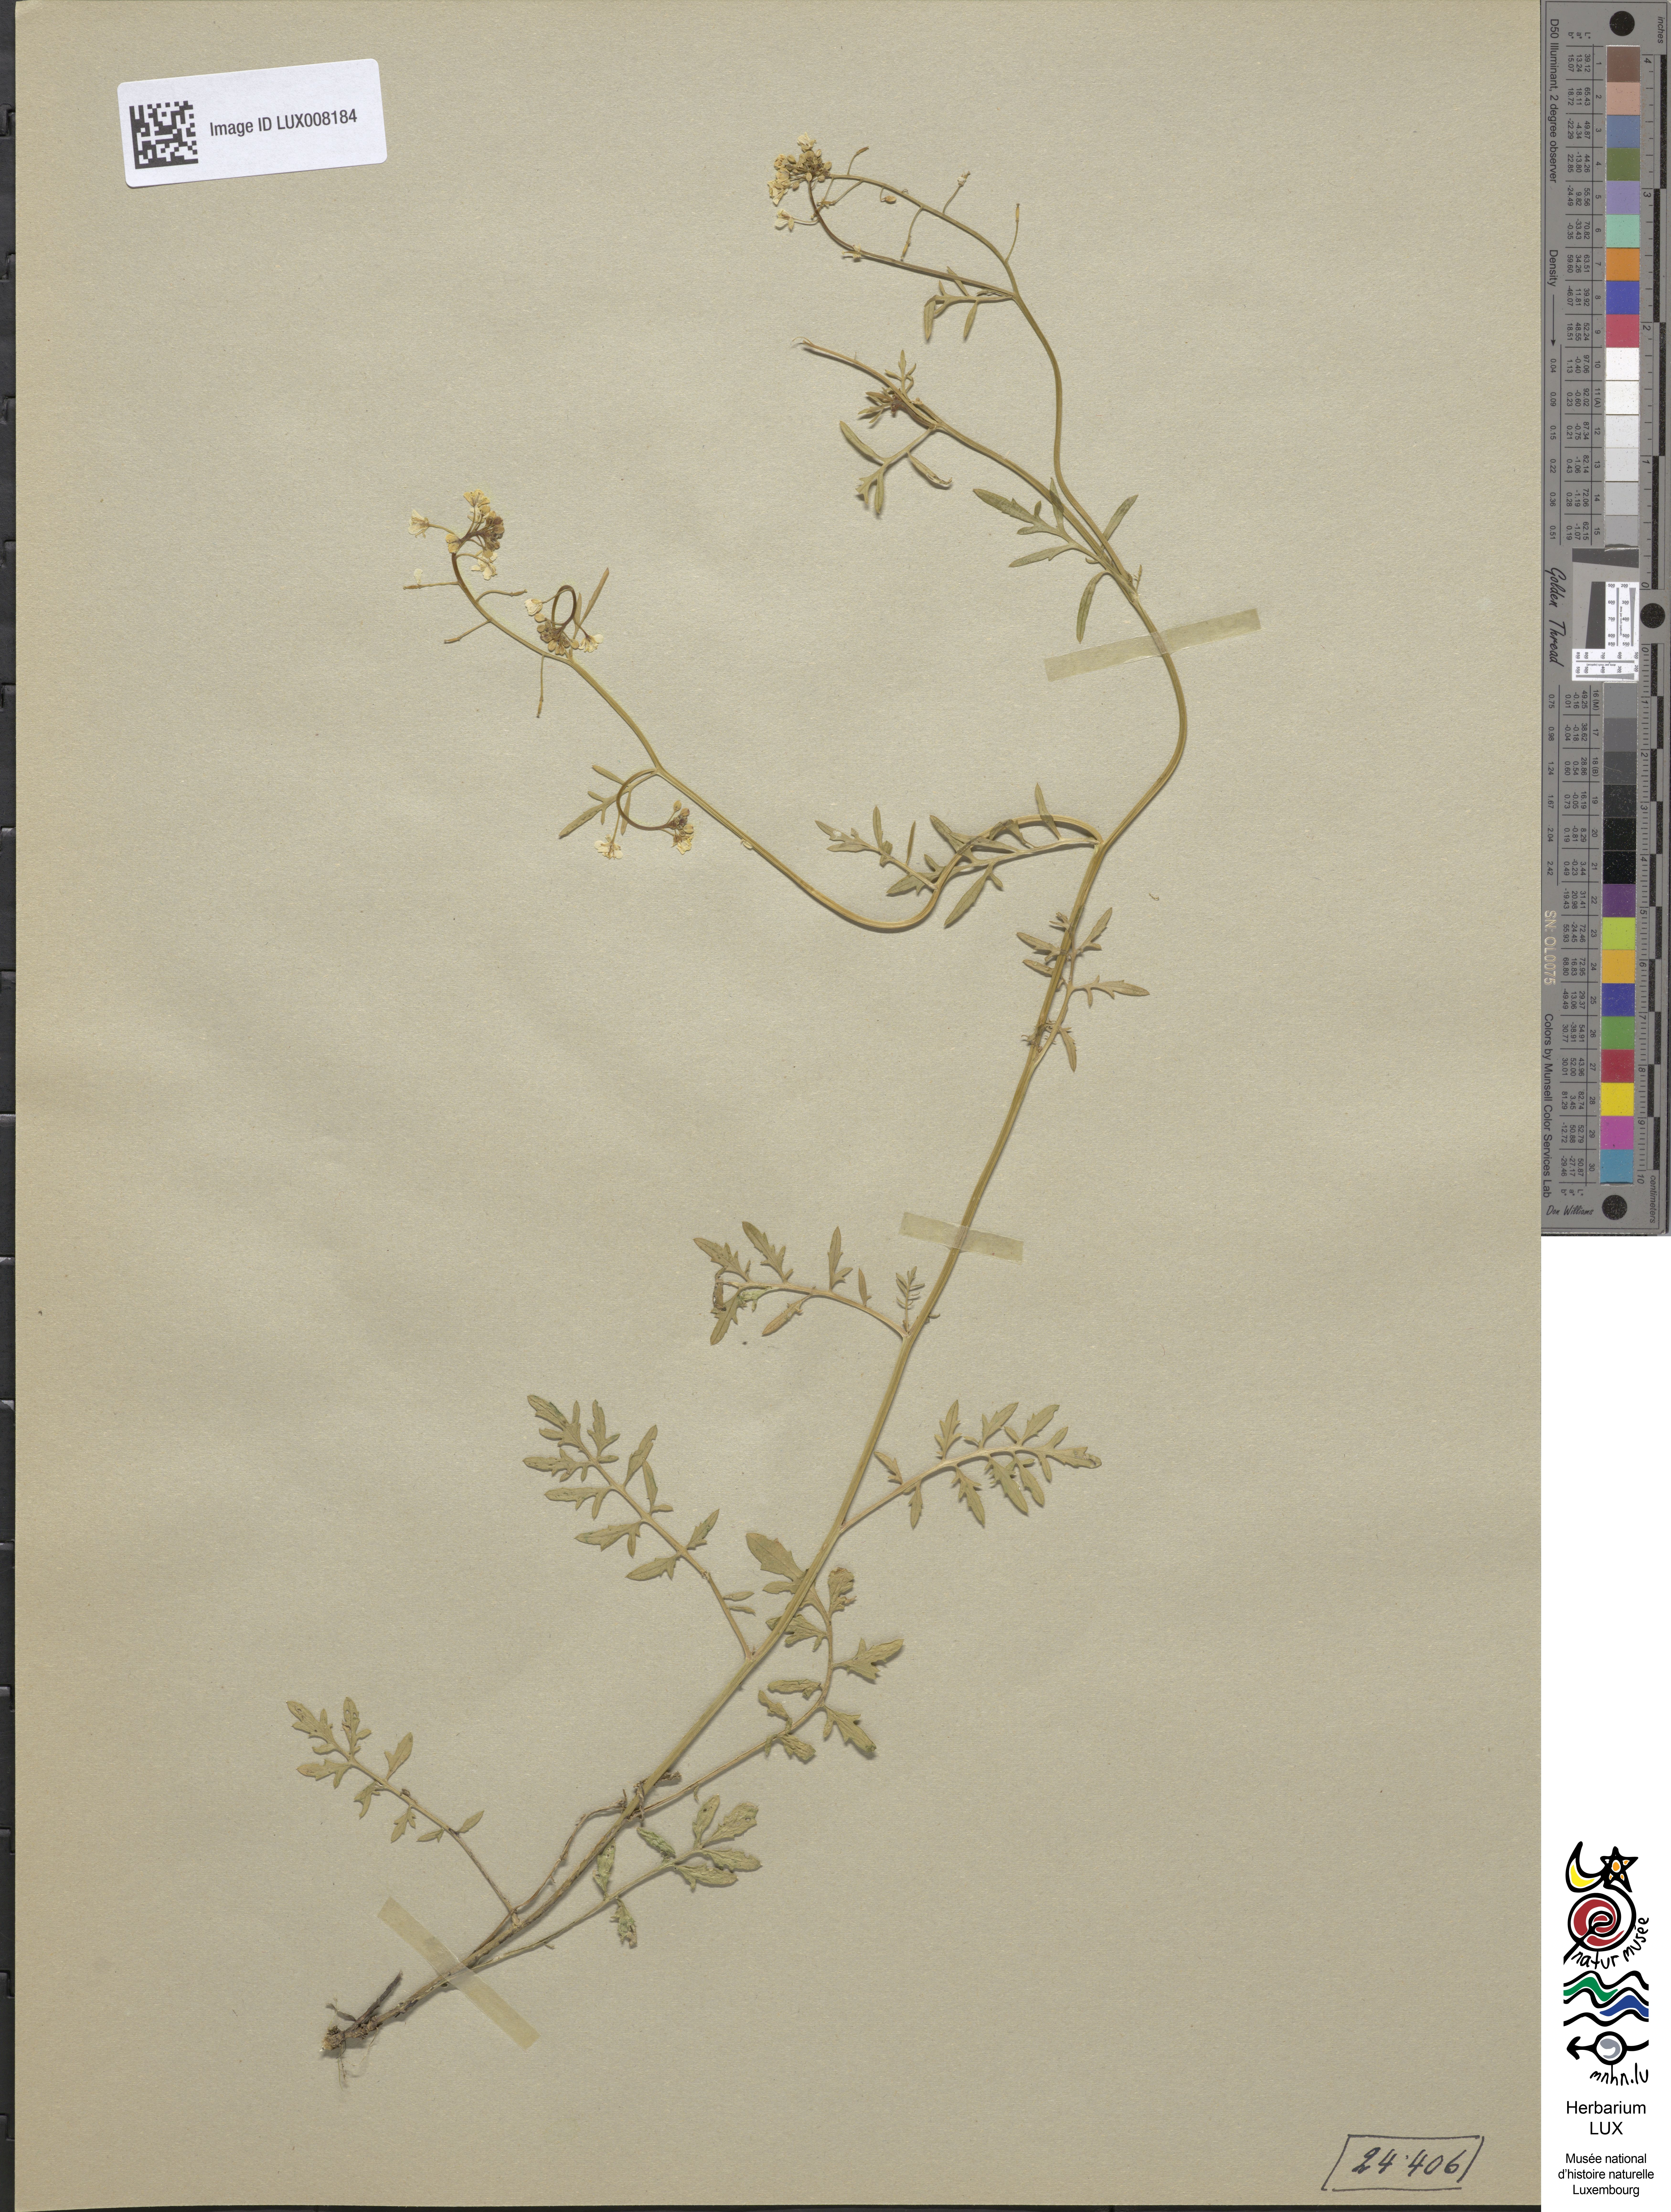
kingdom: Plantae
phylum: Tracheophyta
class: Magnoliopsida
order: Brassicales
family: Brassicaceae
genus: Rorippa
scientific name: Rorippa sylvestris
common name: Creeping yellowcress
